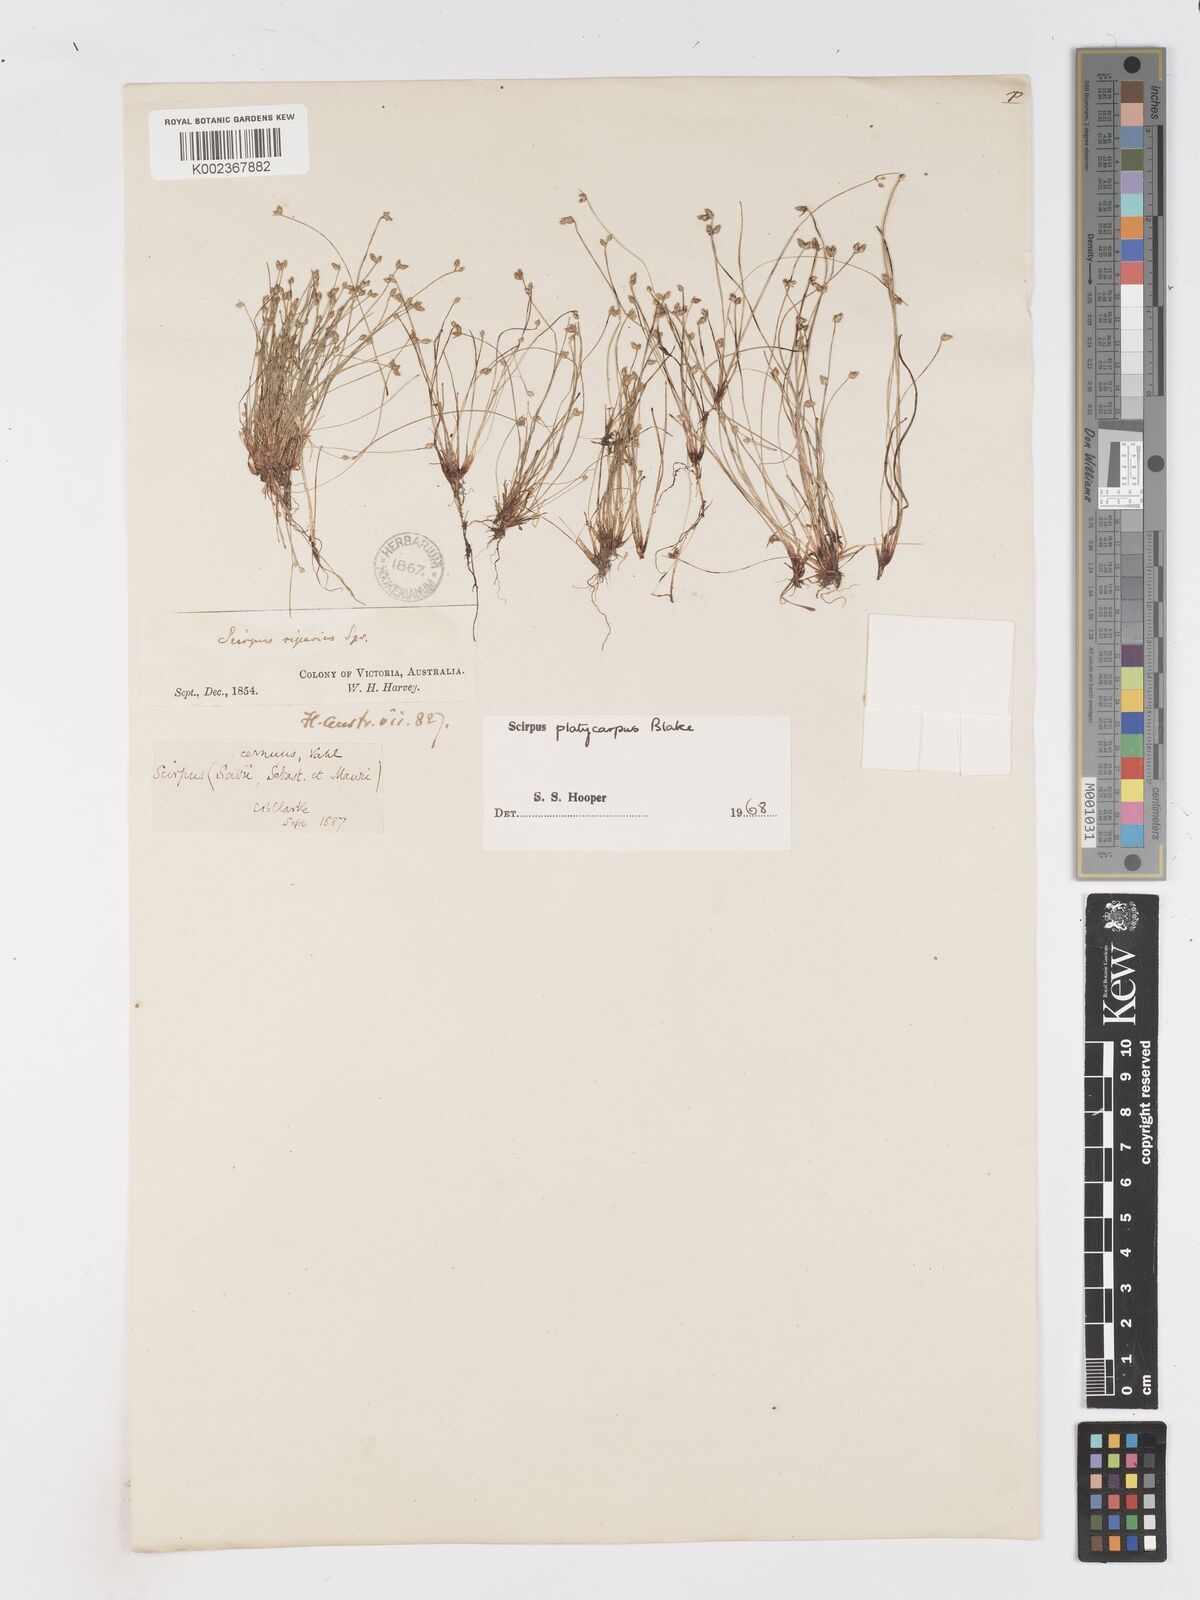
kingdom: Plantae
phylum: Tracheophyta
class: Liliopsida
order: Poales
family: Cyperaceae
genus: Isolepis
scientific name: Isolepis cernua
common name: Slender club-rush
